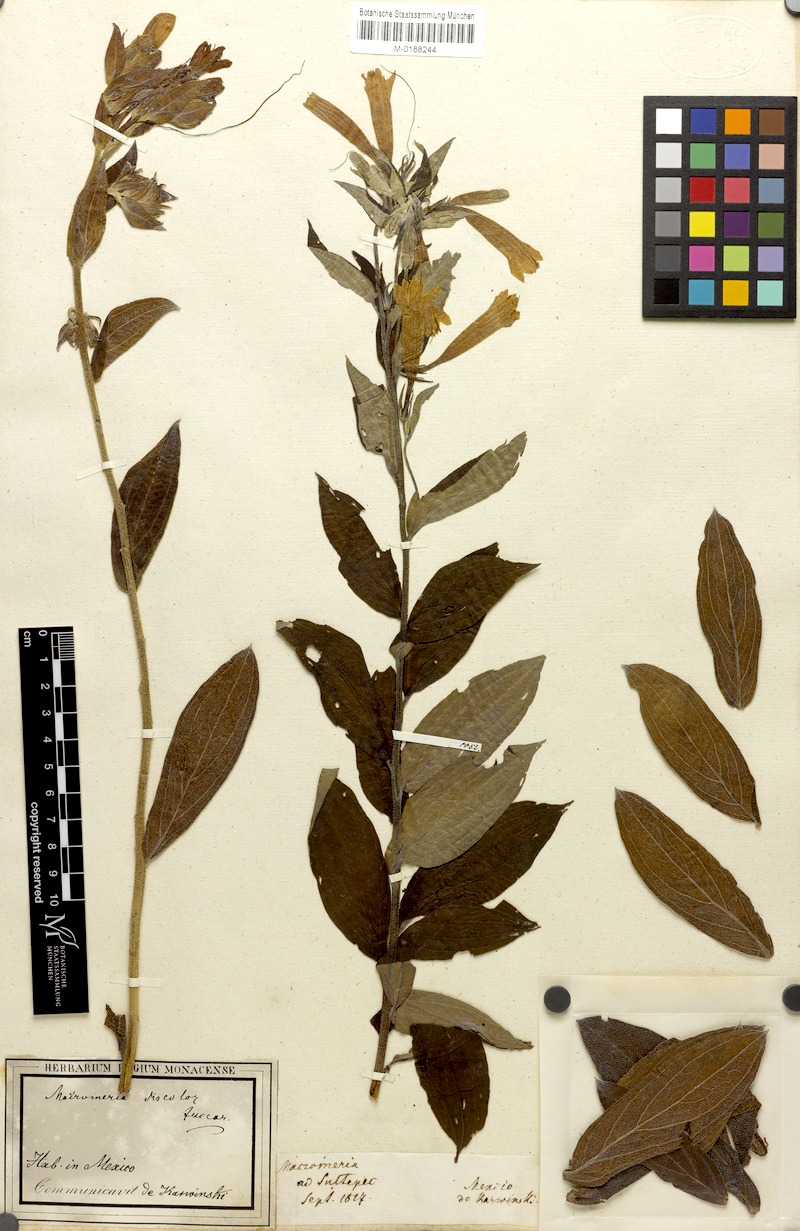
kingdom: Plantae
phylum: Tracheophyta
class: Magnoliopsida
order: Boraginales
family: Boraginaceae
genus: Lithospermum
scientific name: Lithospermum johnstonii
